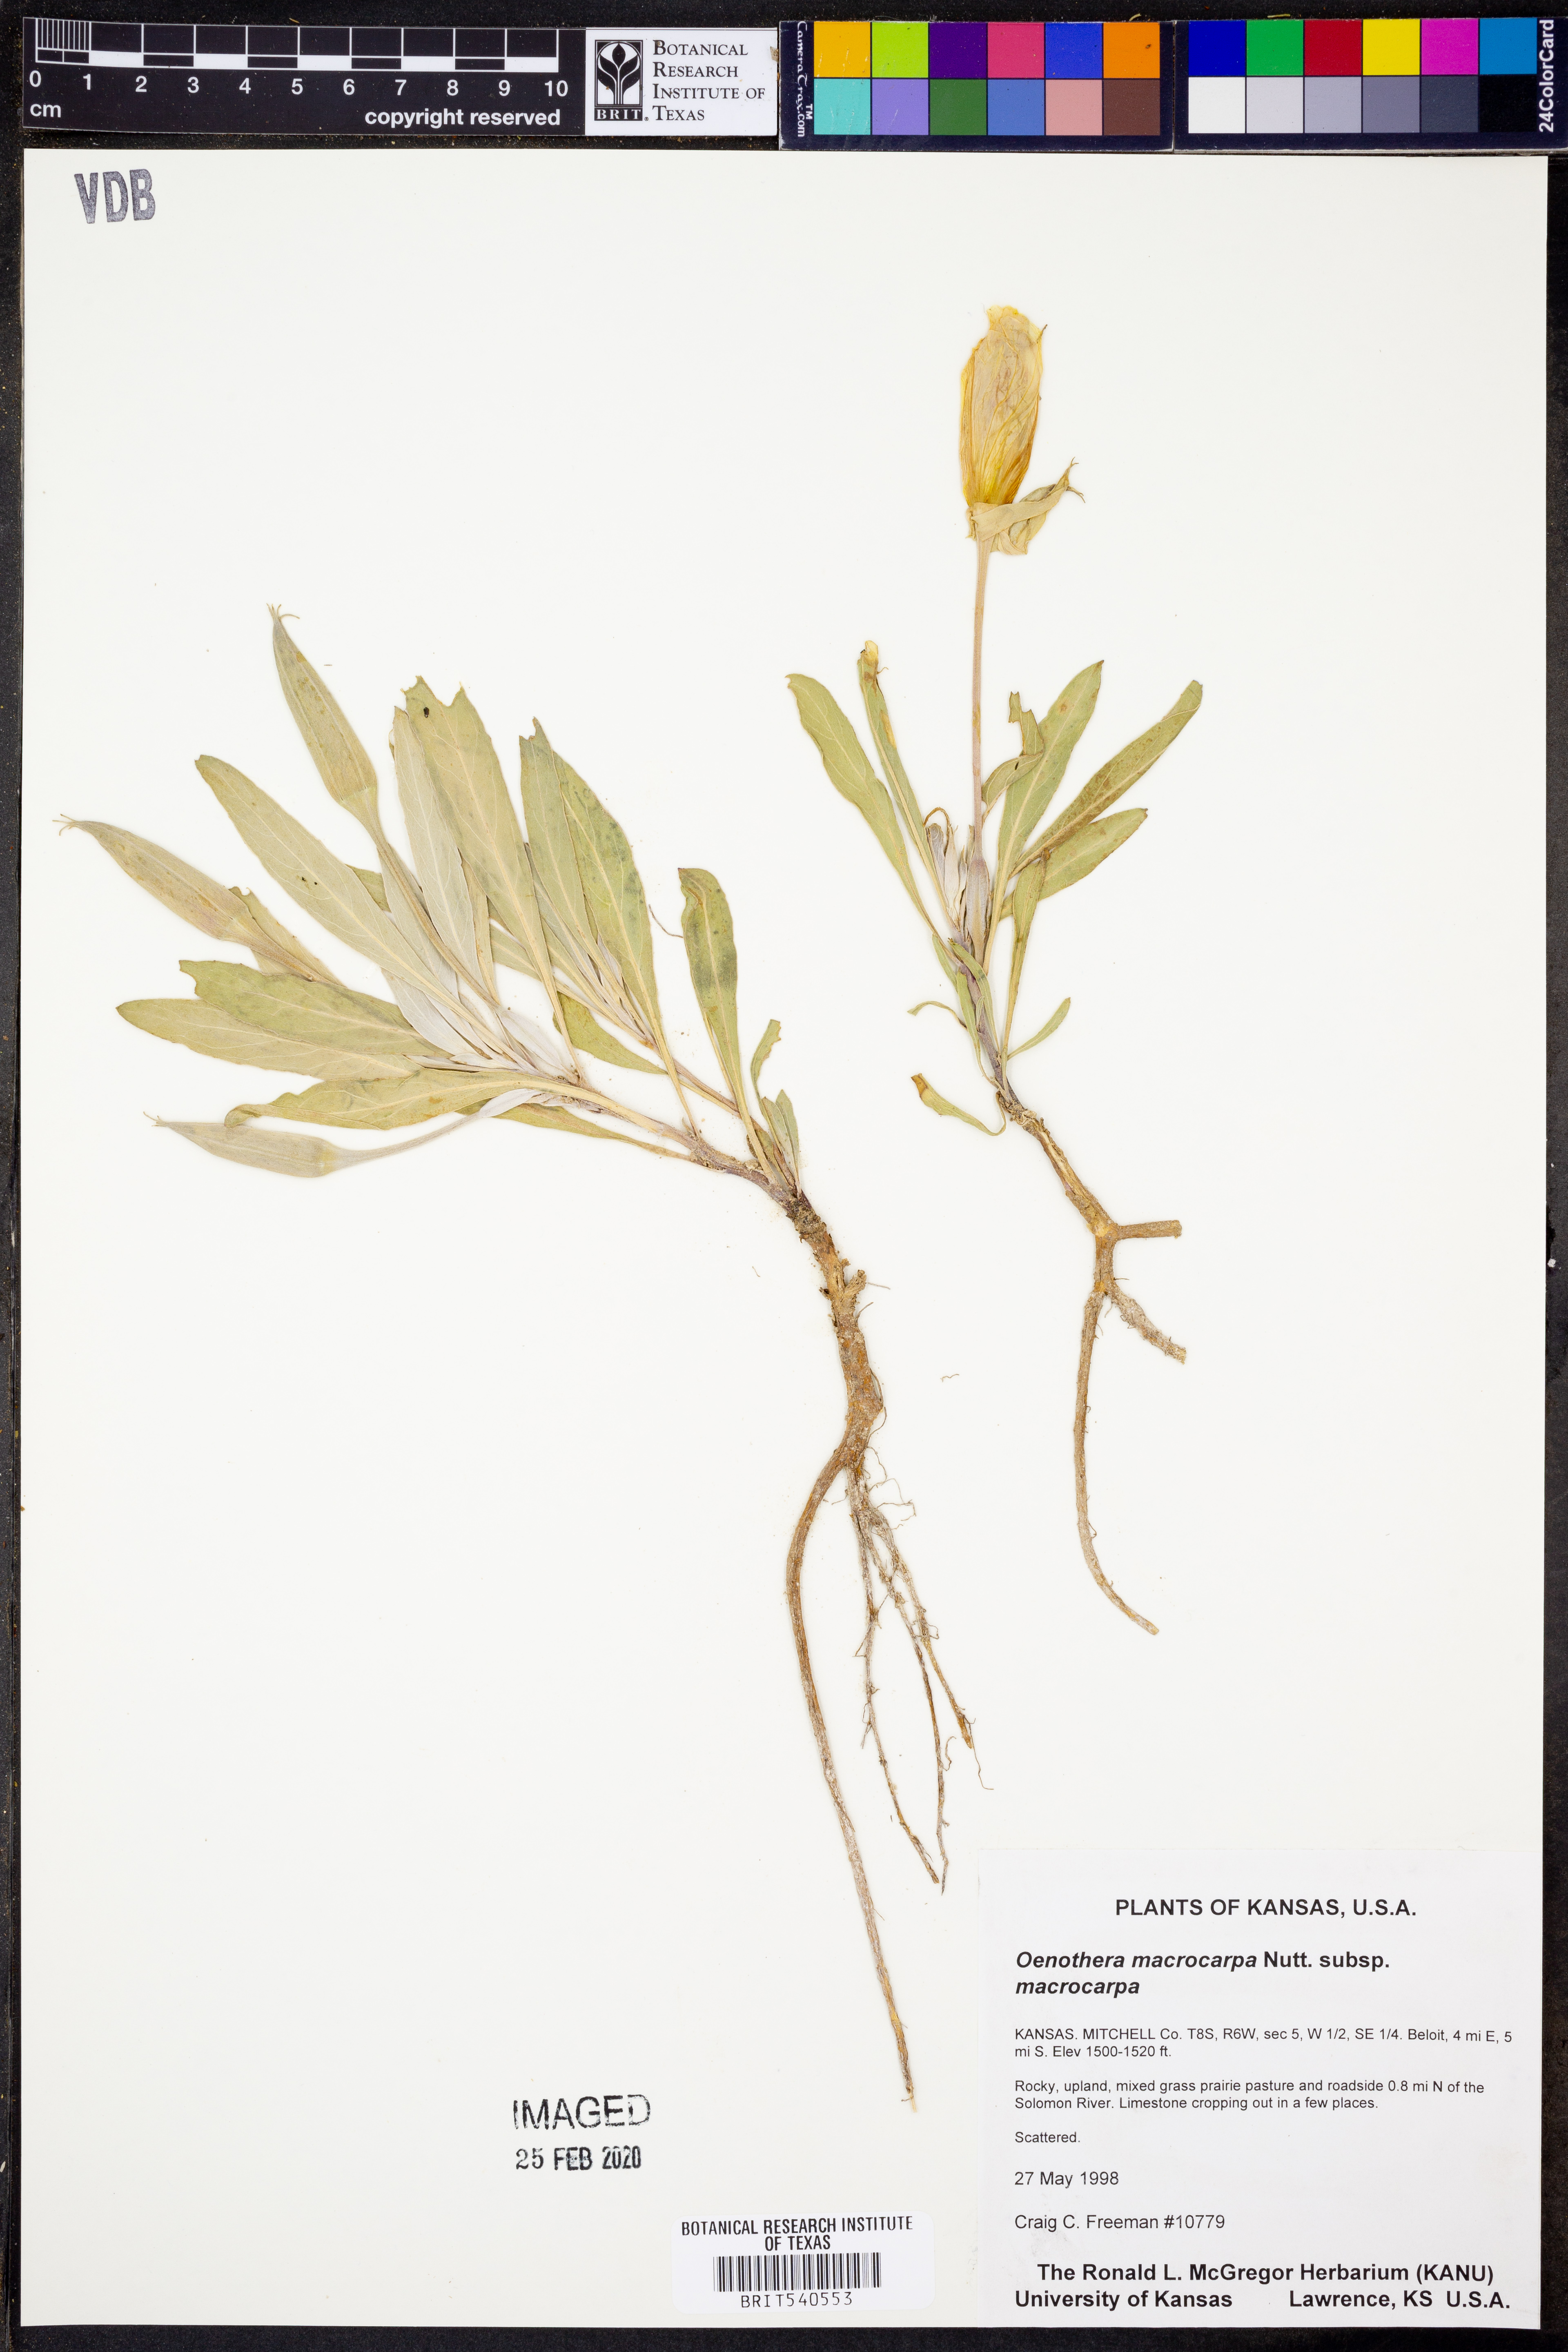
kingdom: Plantae
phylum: Tracheophyta
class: Magnoliopsida
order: Myrtales
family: Onagraceae
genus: Oenothera
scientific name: Oenothera macrocarpa
